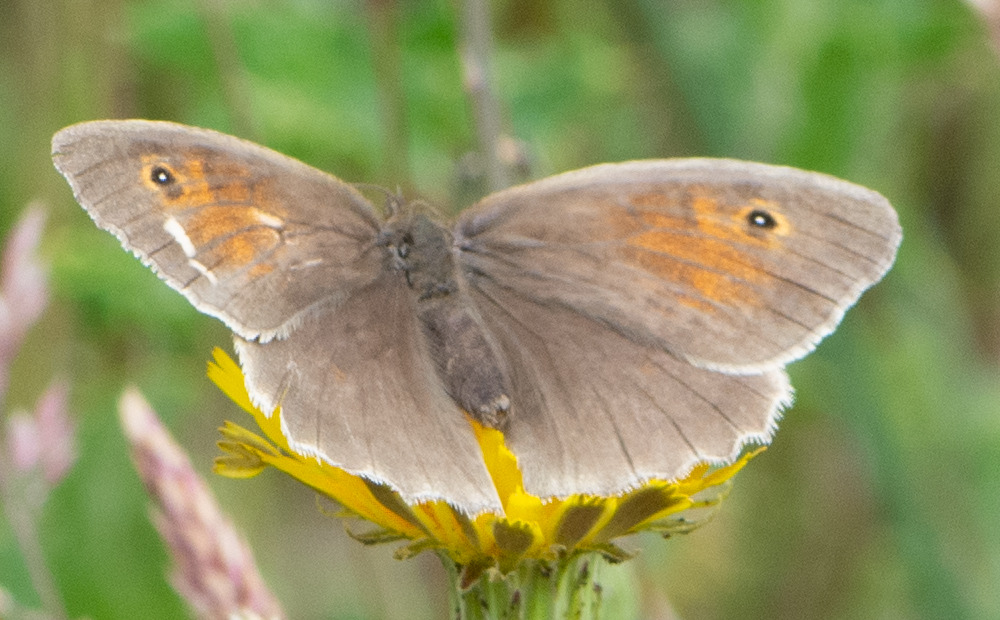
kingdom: Animalia
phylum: Arthropoda
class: Insecta
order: Lepidoptera
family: Nymphalidae
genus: Maniola
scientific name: Maniola jurtina
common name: Græsrandøje
